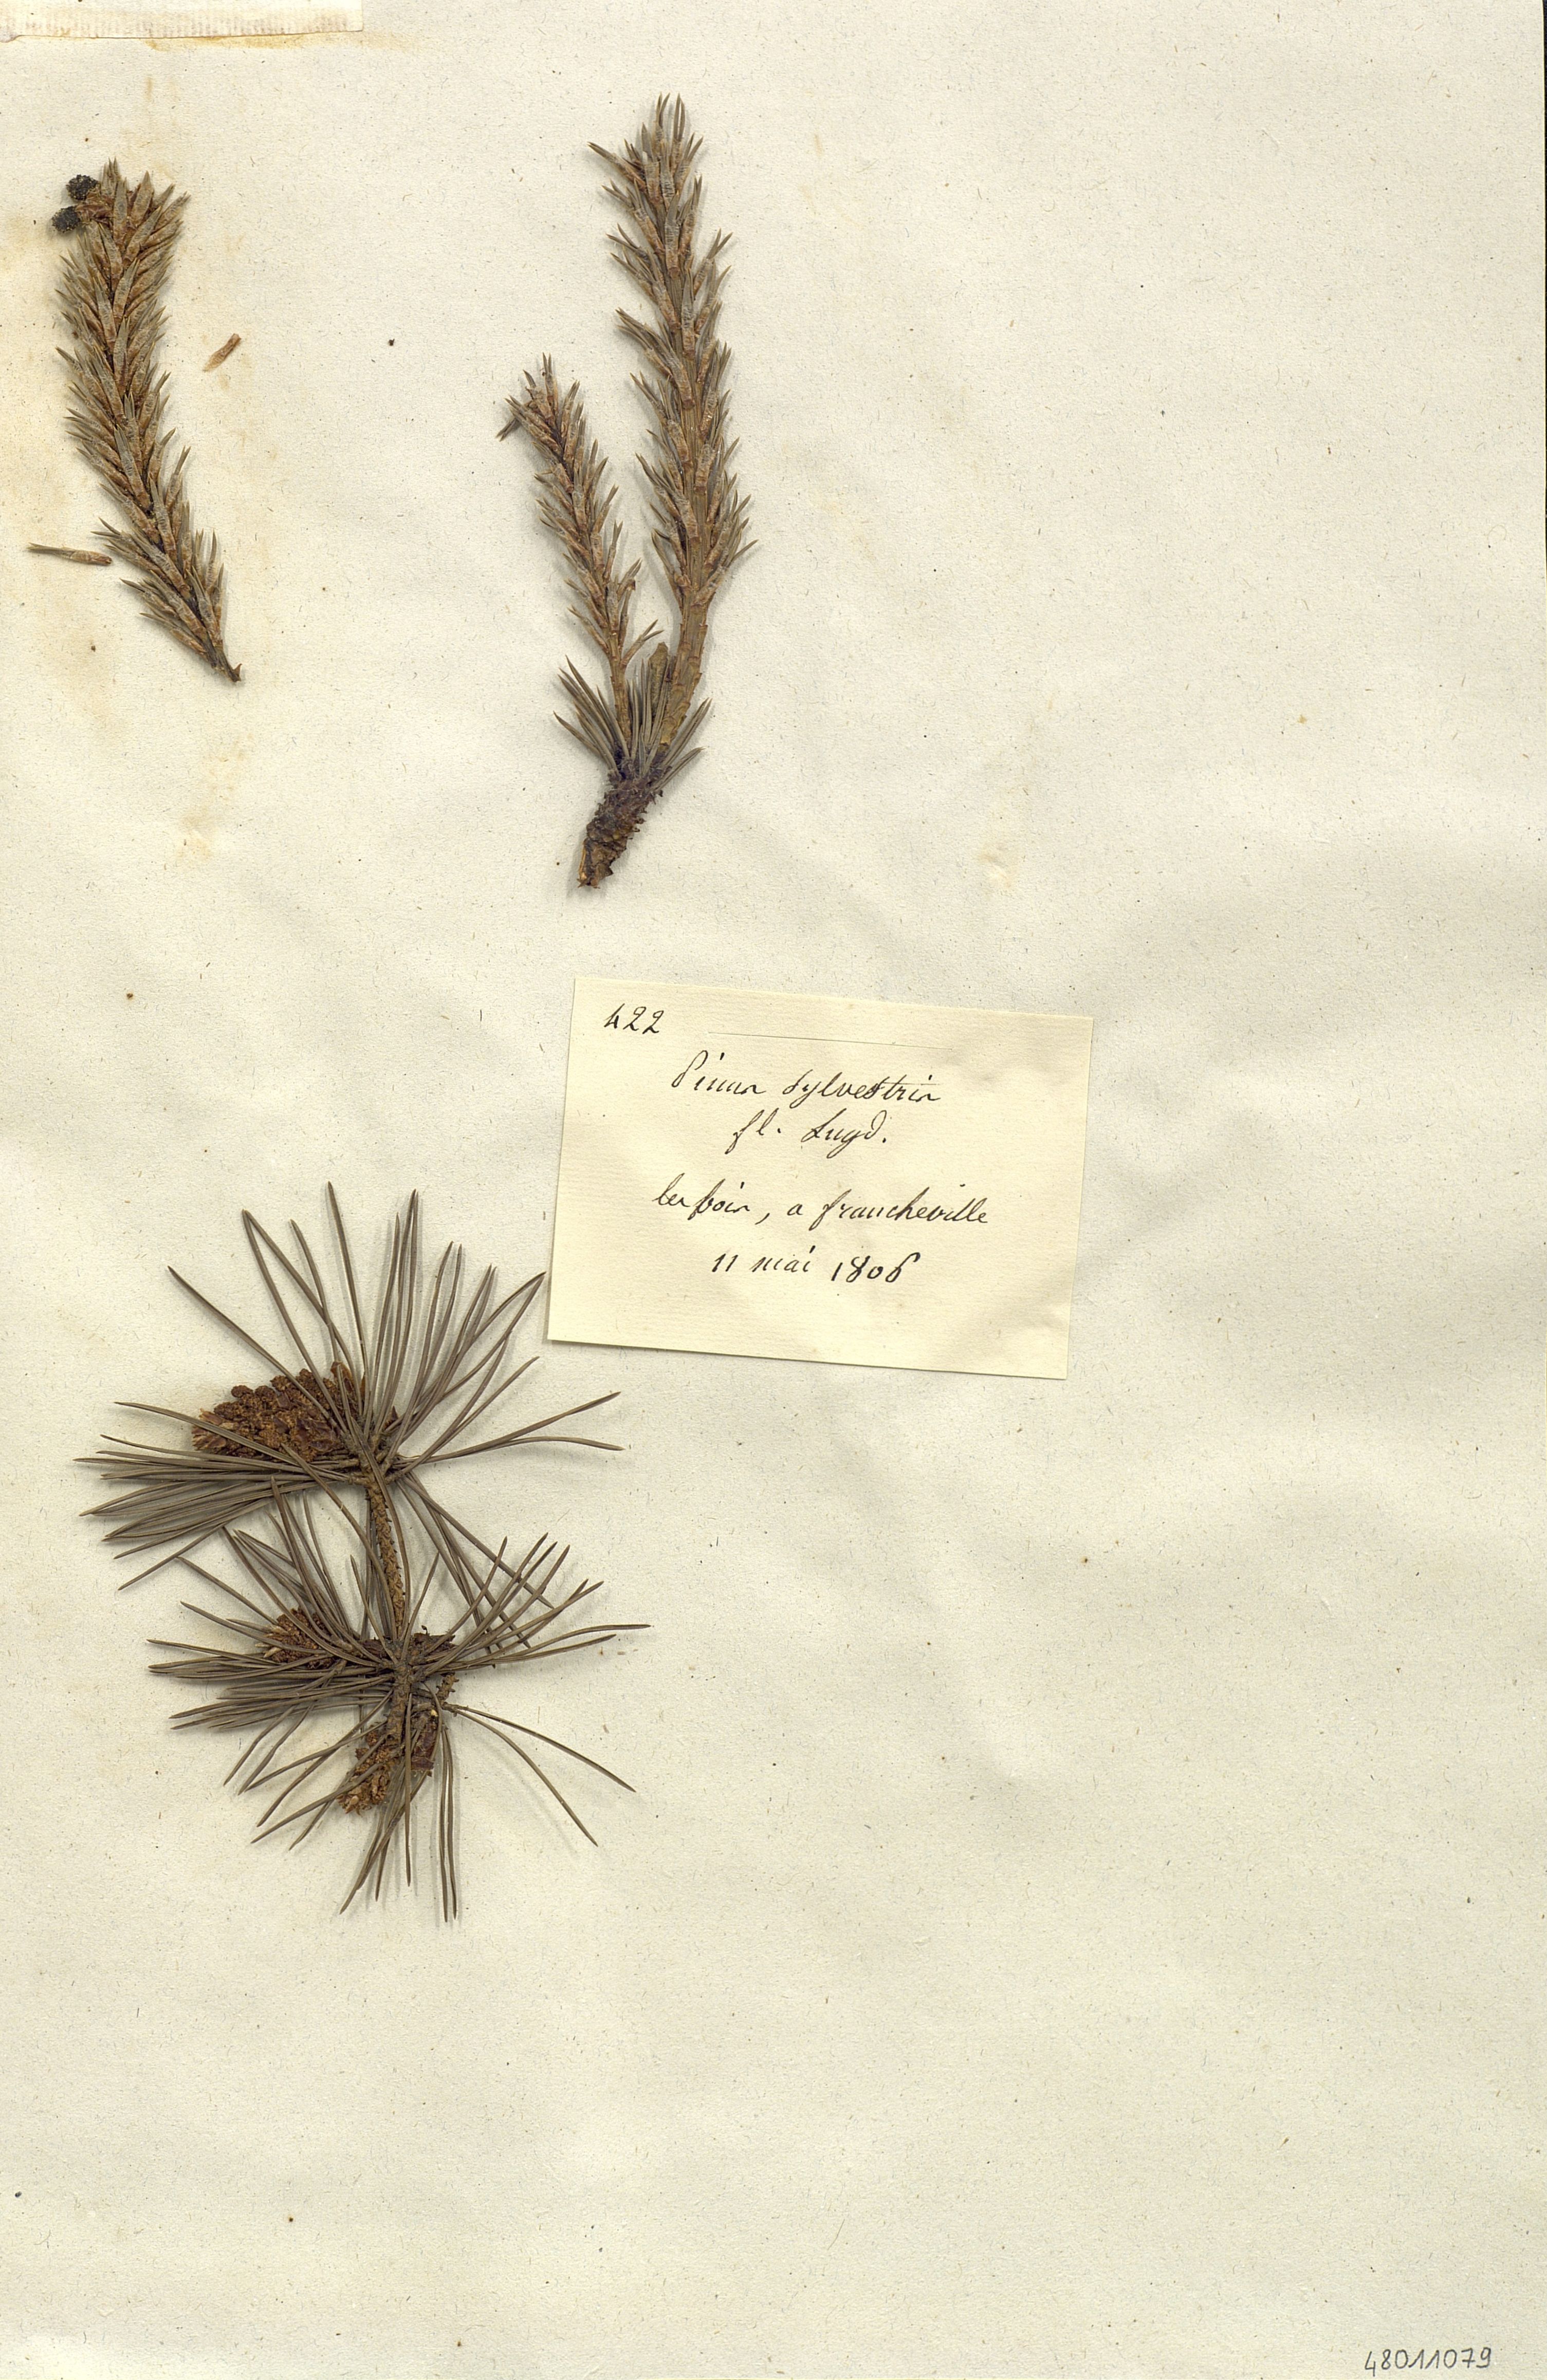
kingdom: Plantae
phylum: Tracheophyta
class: Pinopsida
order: Pinales
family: Pinaceae
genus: Pinus
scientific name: Pinus sylvestris
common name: Scots pine
